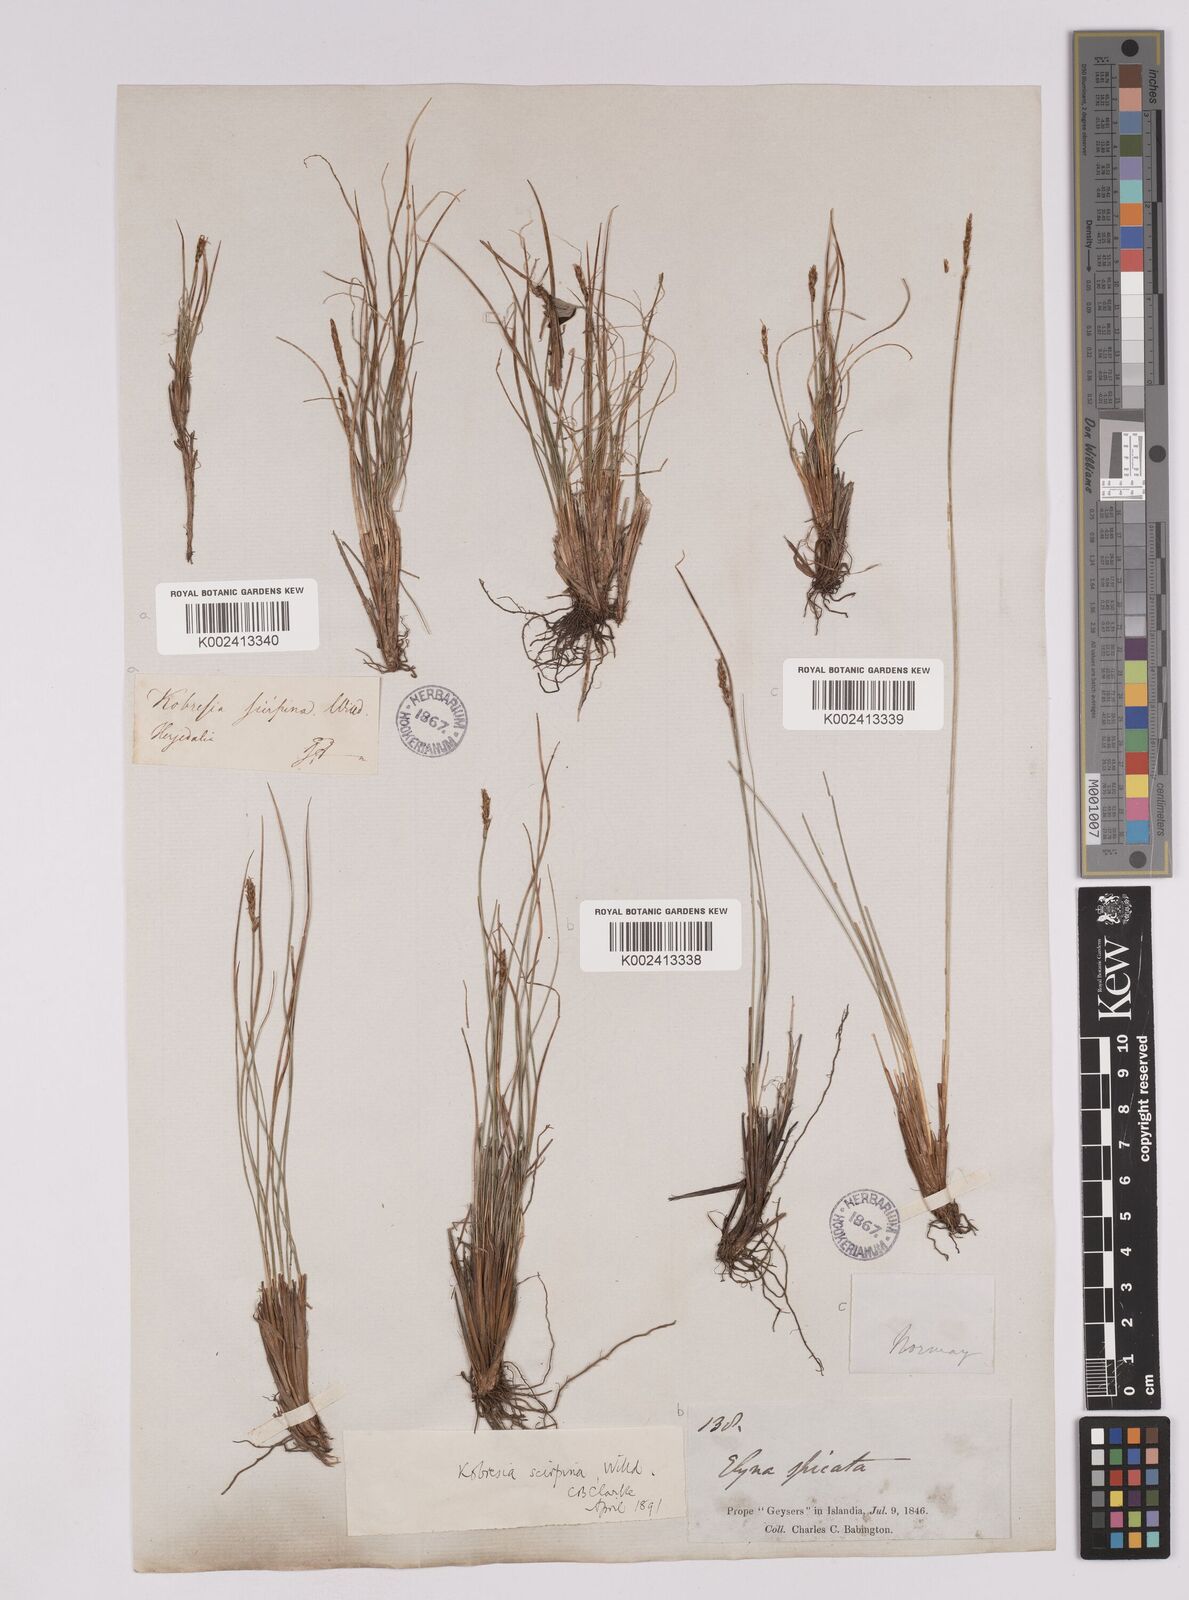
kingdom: Plantae
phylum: Tracheophyta
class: Liliopsida
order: Poales
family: Cyperaceae
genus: Carex
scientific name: Carex myosuroides
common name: Bellard's bog sedge
